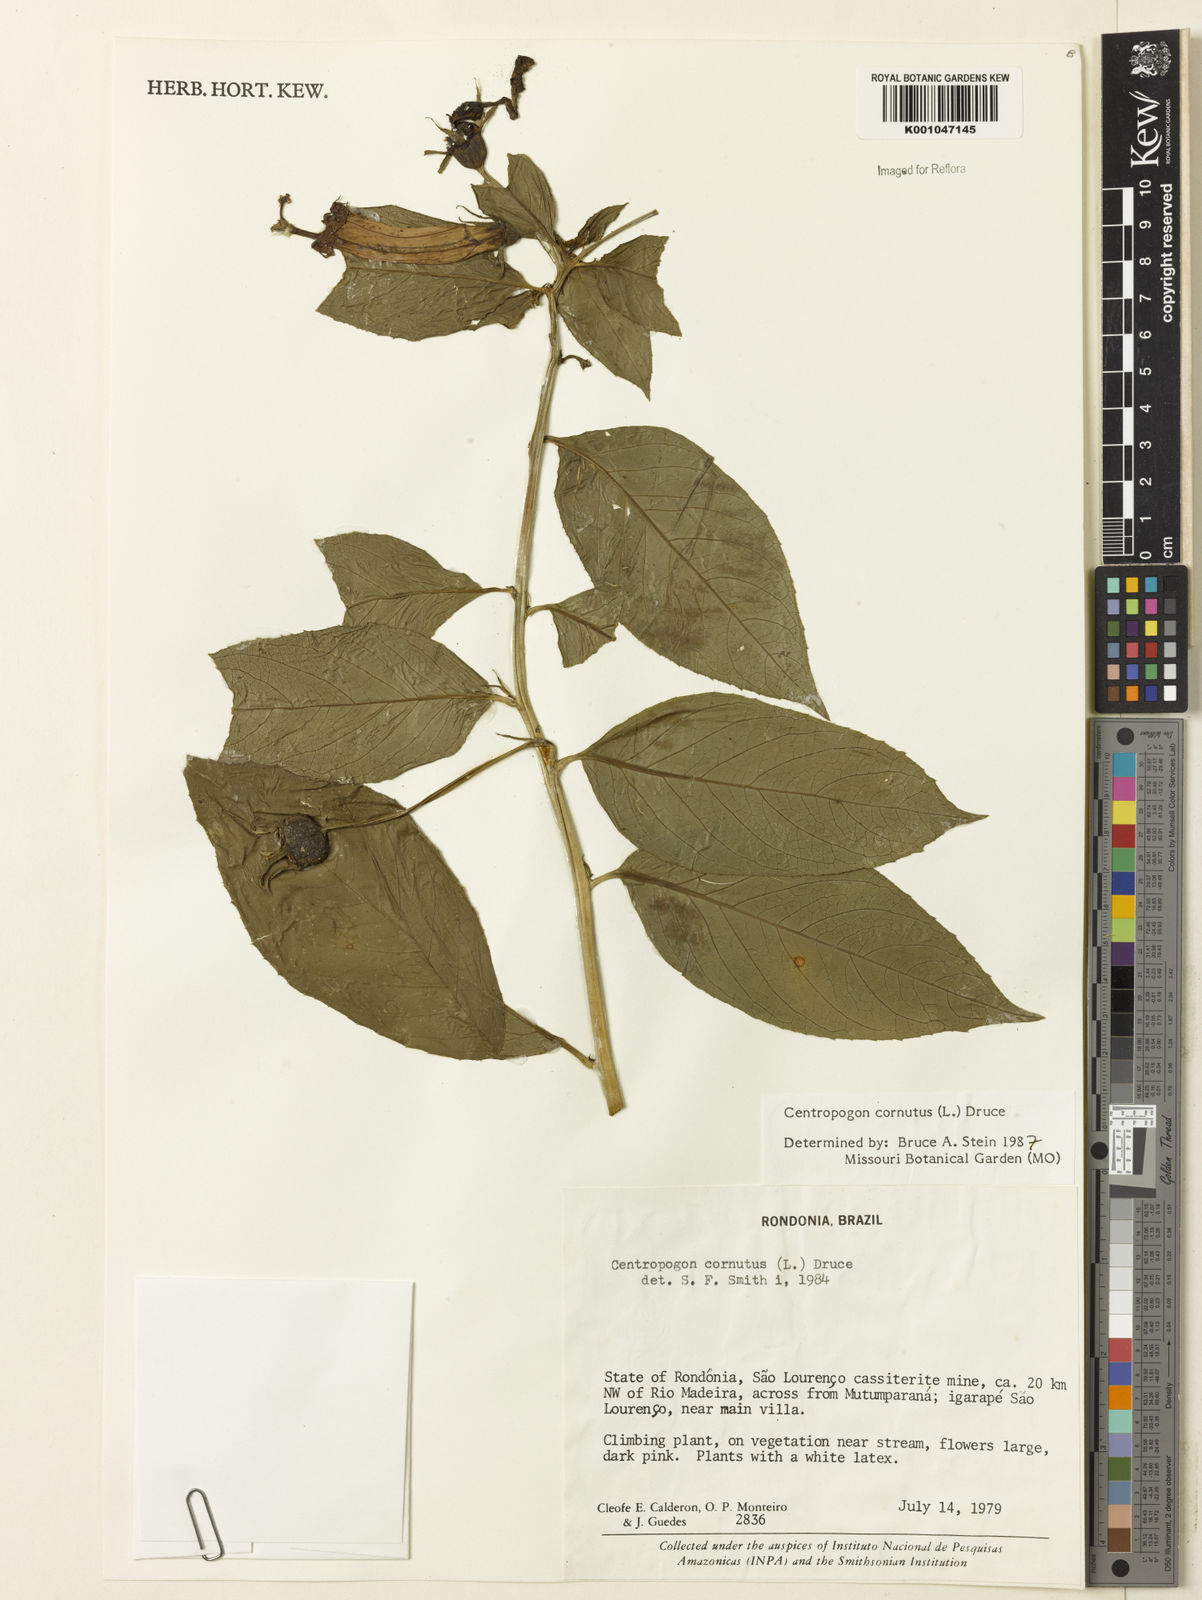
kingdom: Plantae
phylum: Tracheophyta
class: Magnoliopsida
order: Asterales
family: Campanulaceae
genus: Centropogon
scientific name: Centropogon cornutus
